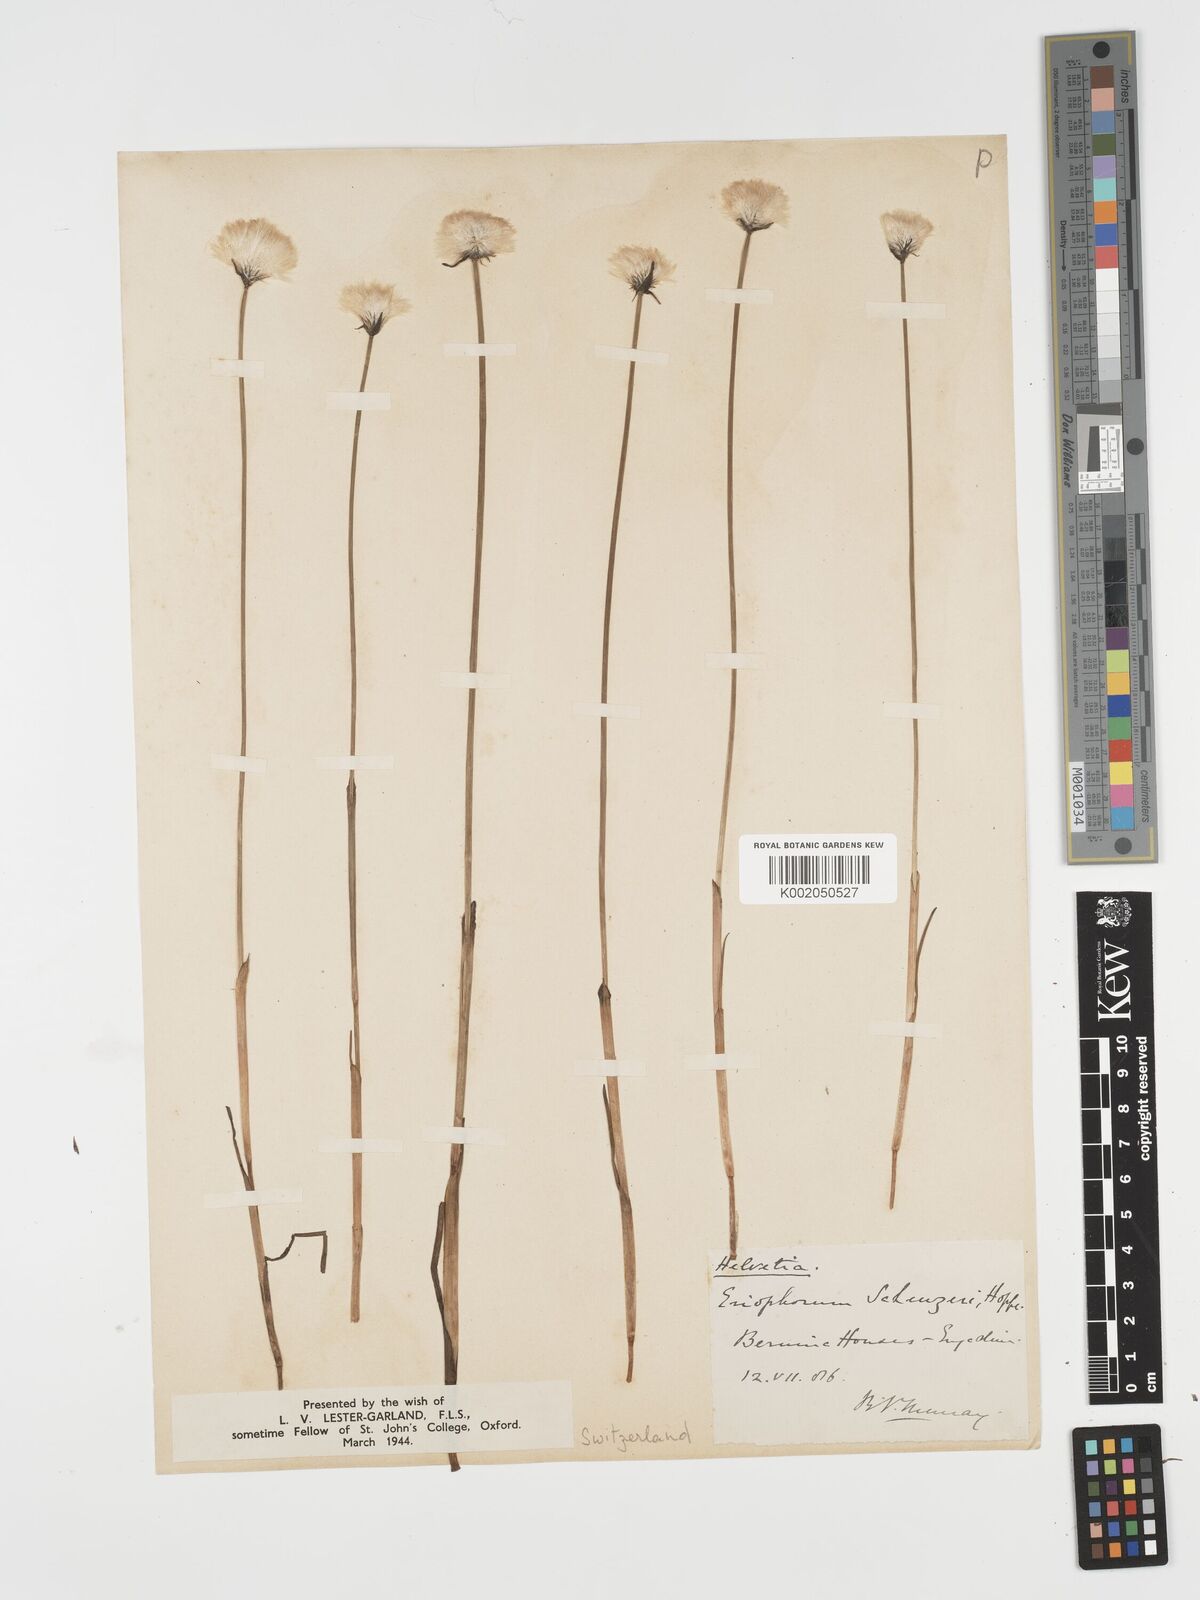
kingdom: Plantae
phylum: Tracheophyta
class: Liliopsida
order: Poales
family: Cyperaceae
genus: Eriophorum
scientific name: Eriophorum scheuchzeri
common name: Scheuchzer's cottongrass
